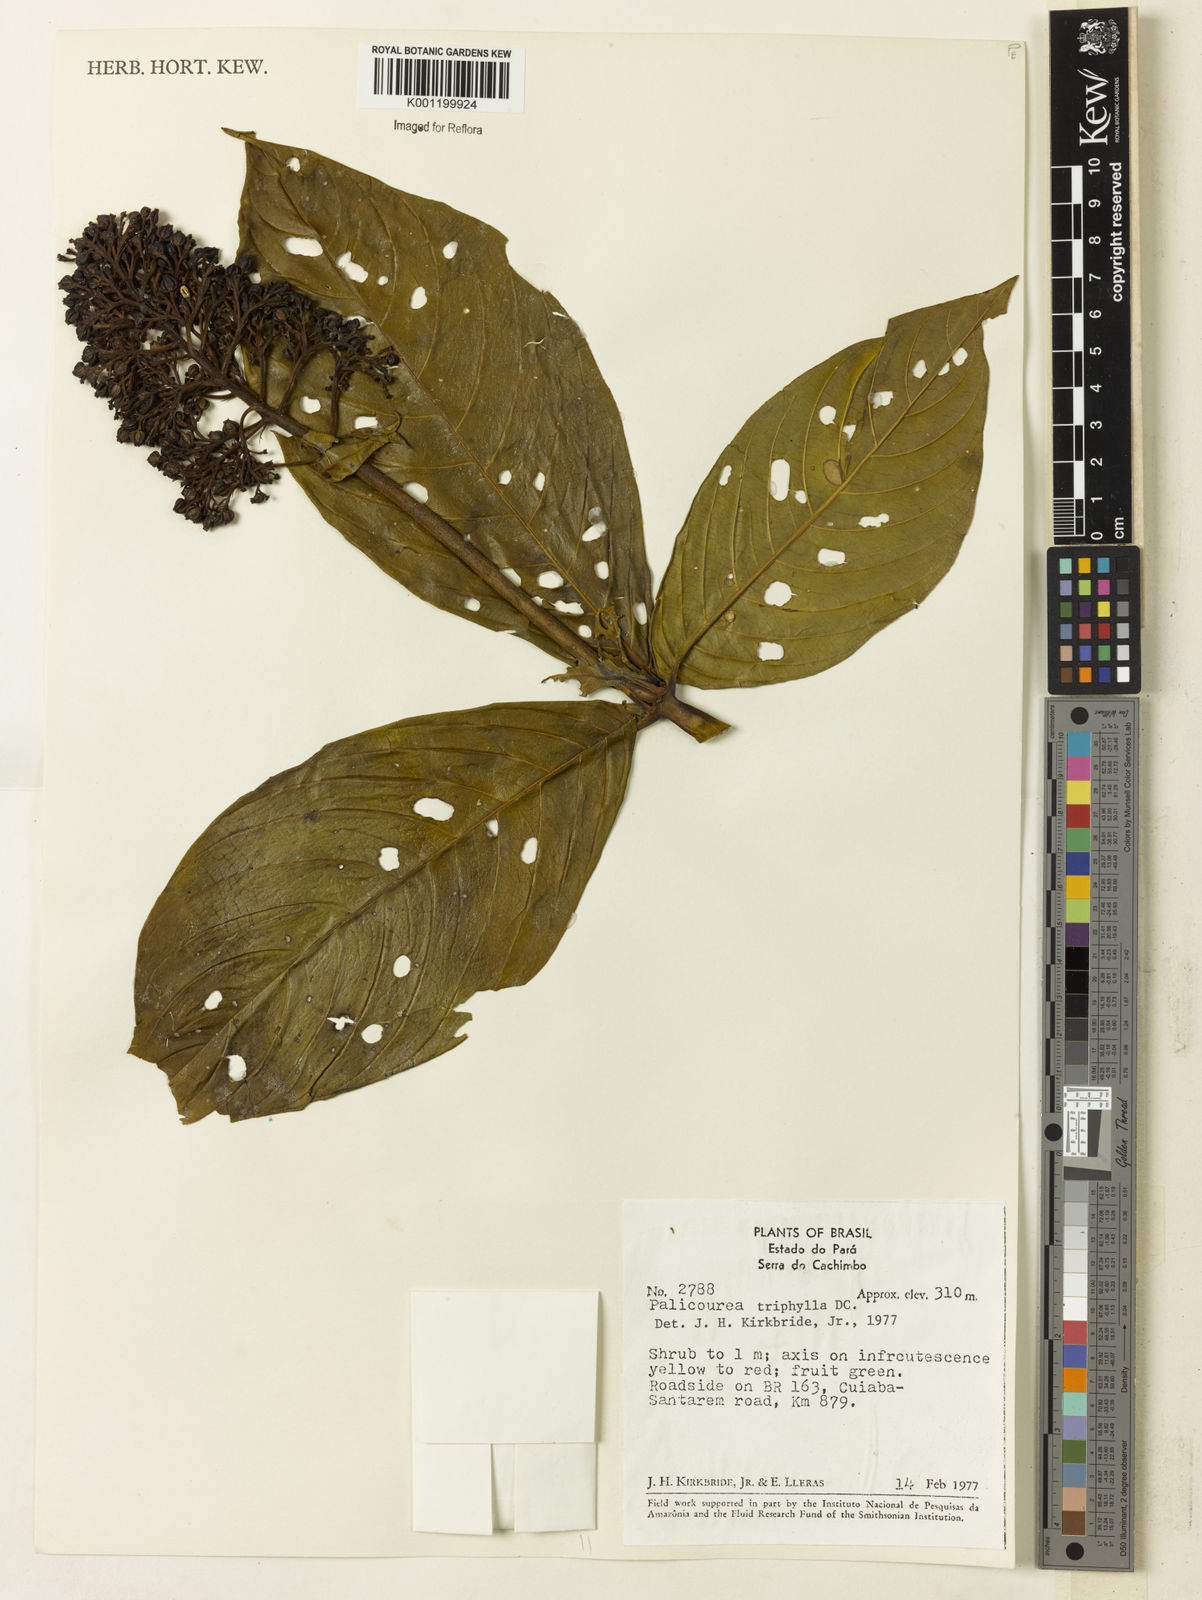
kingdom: Plantae
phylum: Tracheophyta
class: Magnoliopsida
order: Gentianales
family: Rubiaceae
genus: Palicourea
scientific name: Palicourea triphylla
